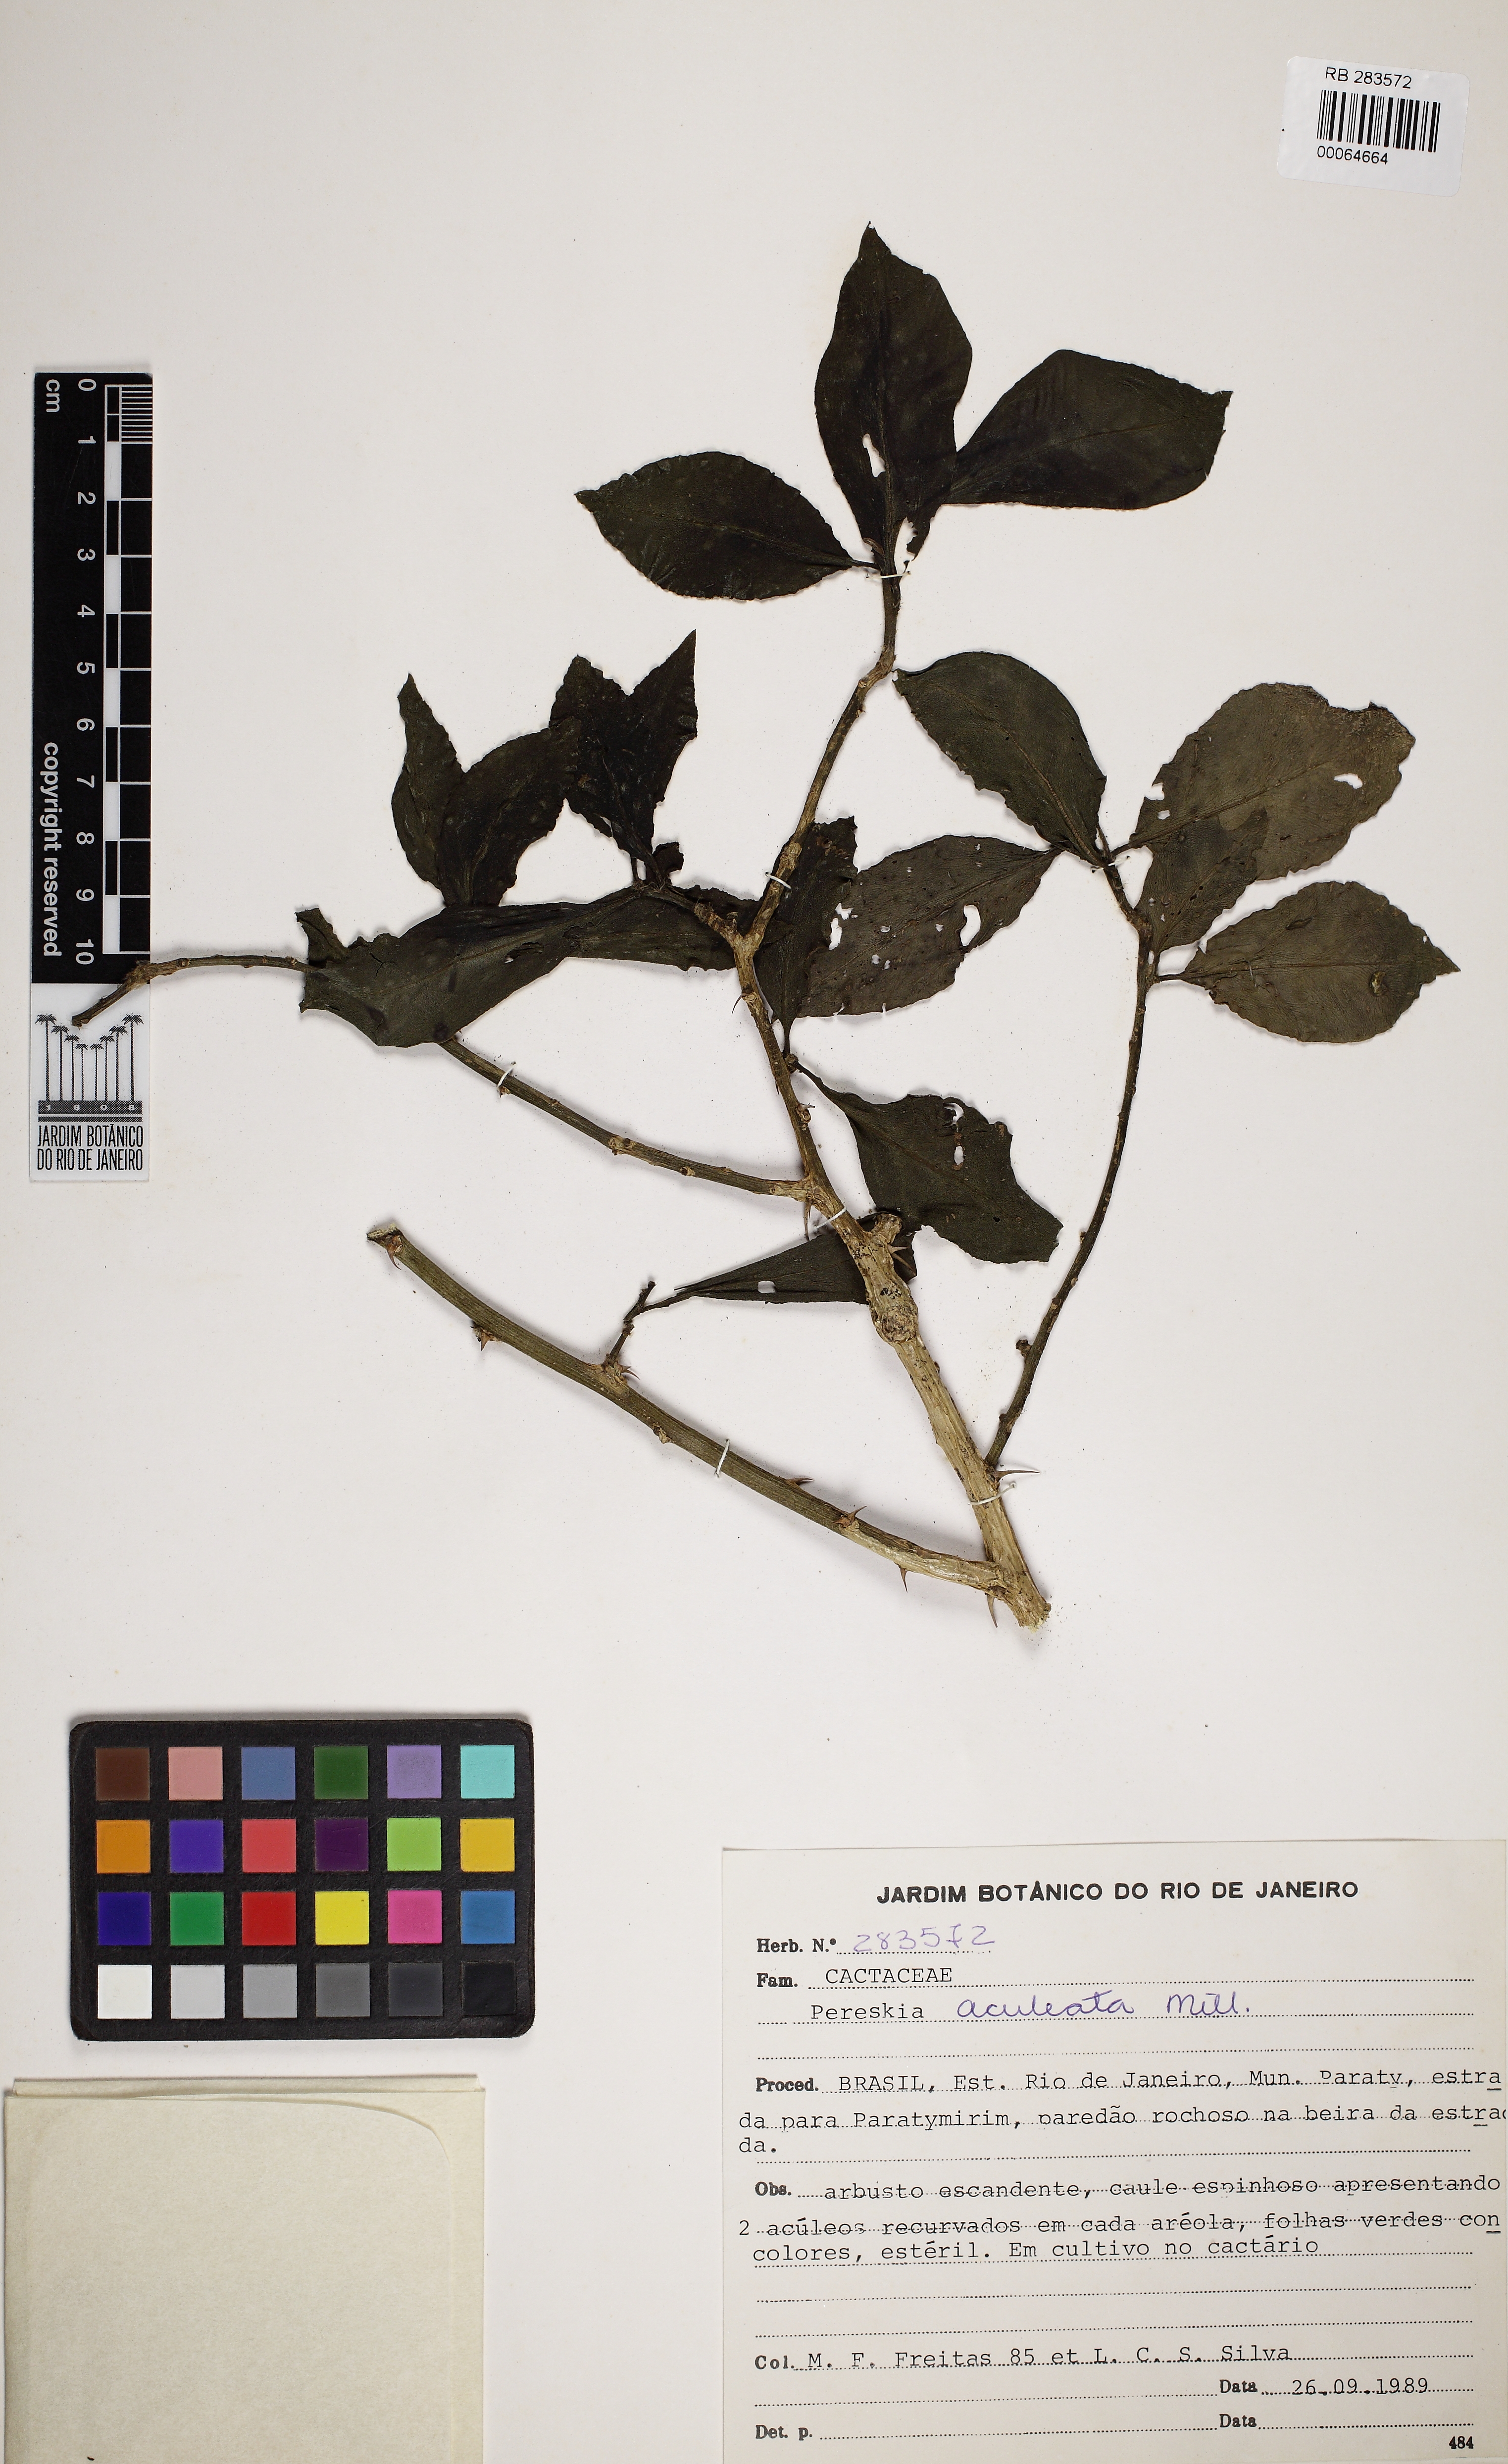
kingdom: Plantae
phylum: Tracheophyta
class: Magnoliopsida
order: Caryophyllales
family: Cactaceae
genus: Pereskia
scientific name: Pereskia aculeata
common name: Barbados gooseberry
